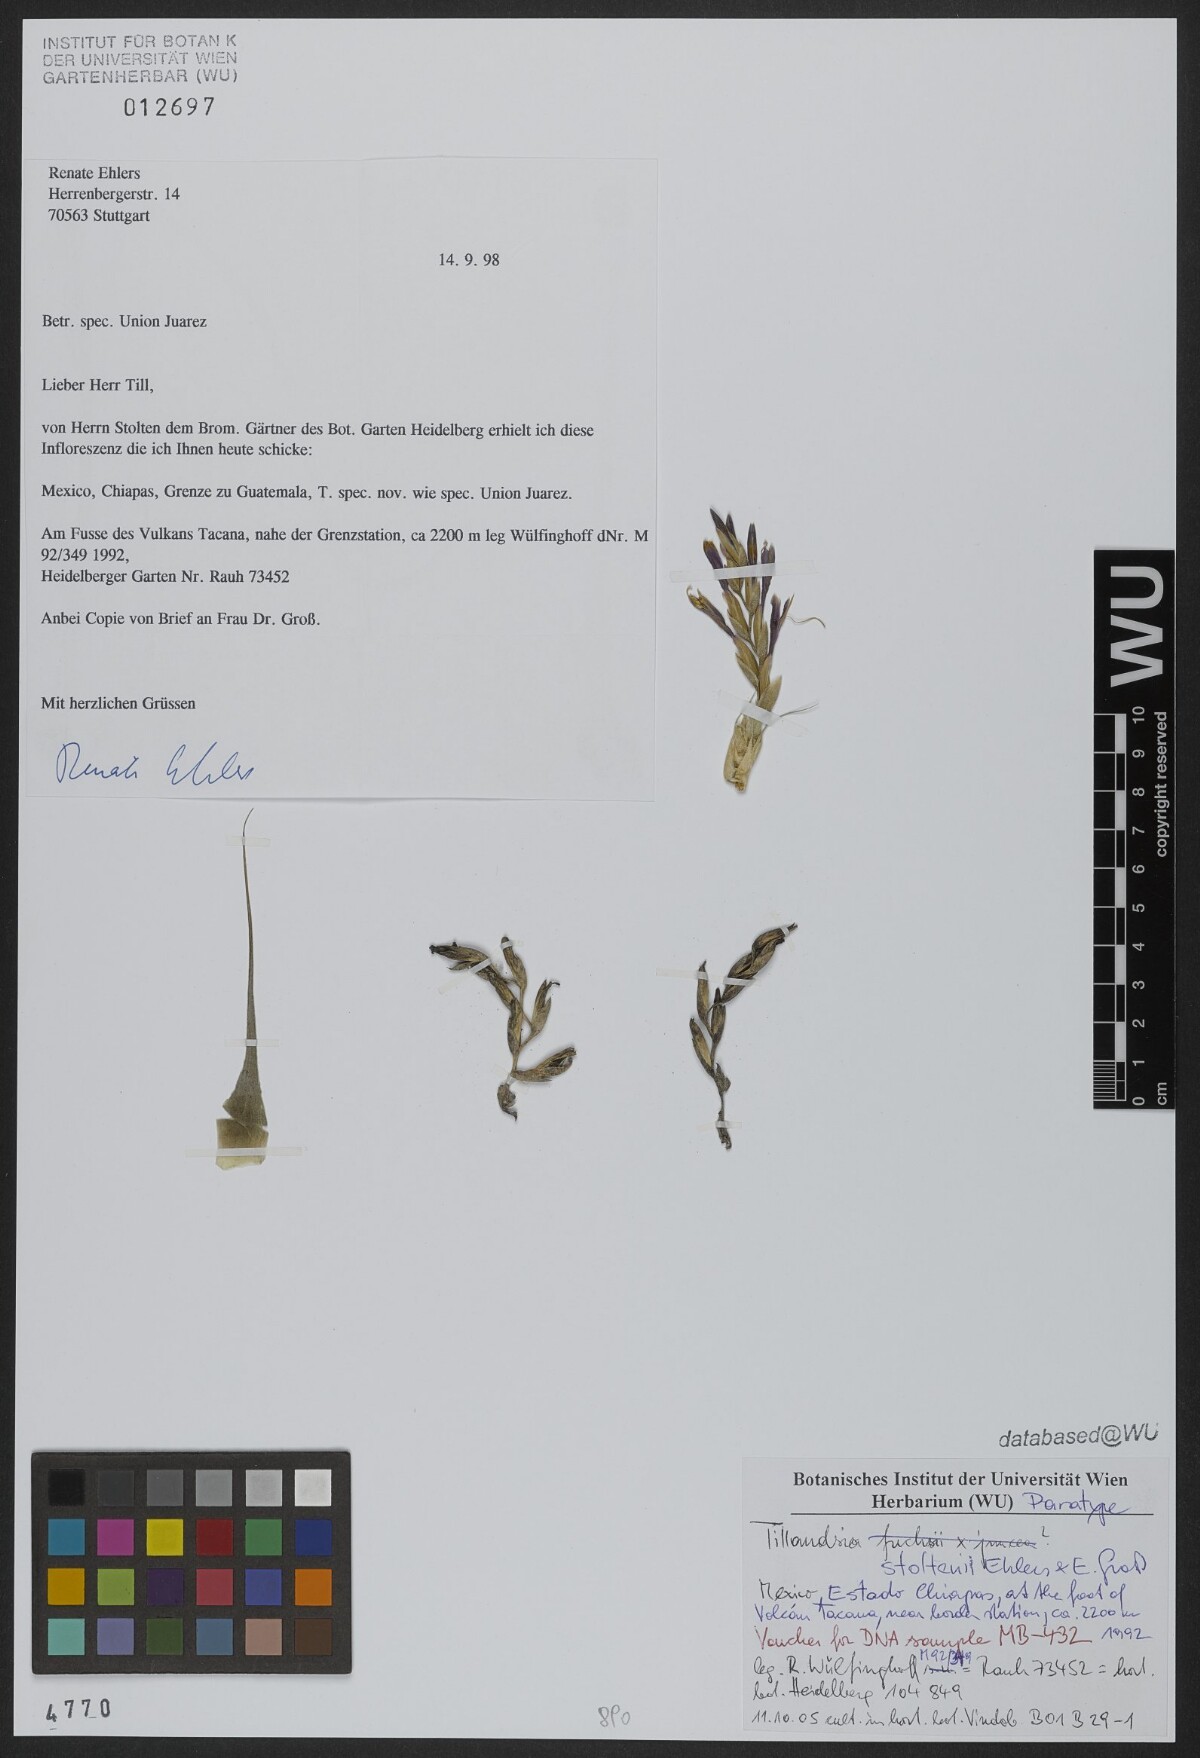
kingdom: Plantae
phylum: Tracheophyta
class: Liliopsida
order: Poales
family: Bromeliaceae
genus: Tillandsia
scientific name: Tillandsia stoltenii
